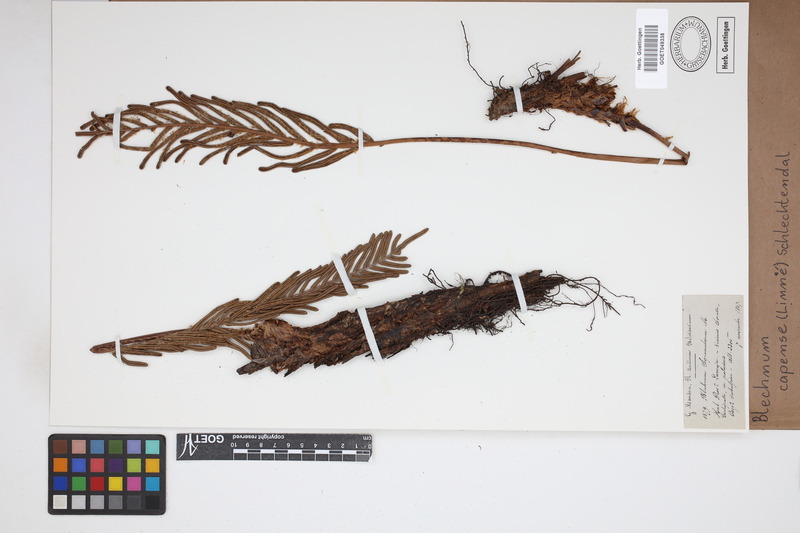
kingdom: Plantae
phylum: Tracheophyta
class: Polypodiopsida
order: Polypodiales
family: Blechnaceae
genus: Parablechnum
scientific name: Parablechnum capense
